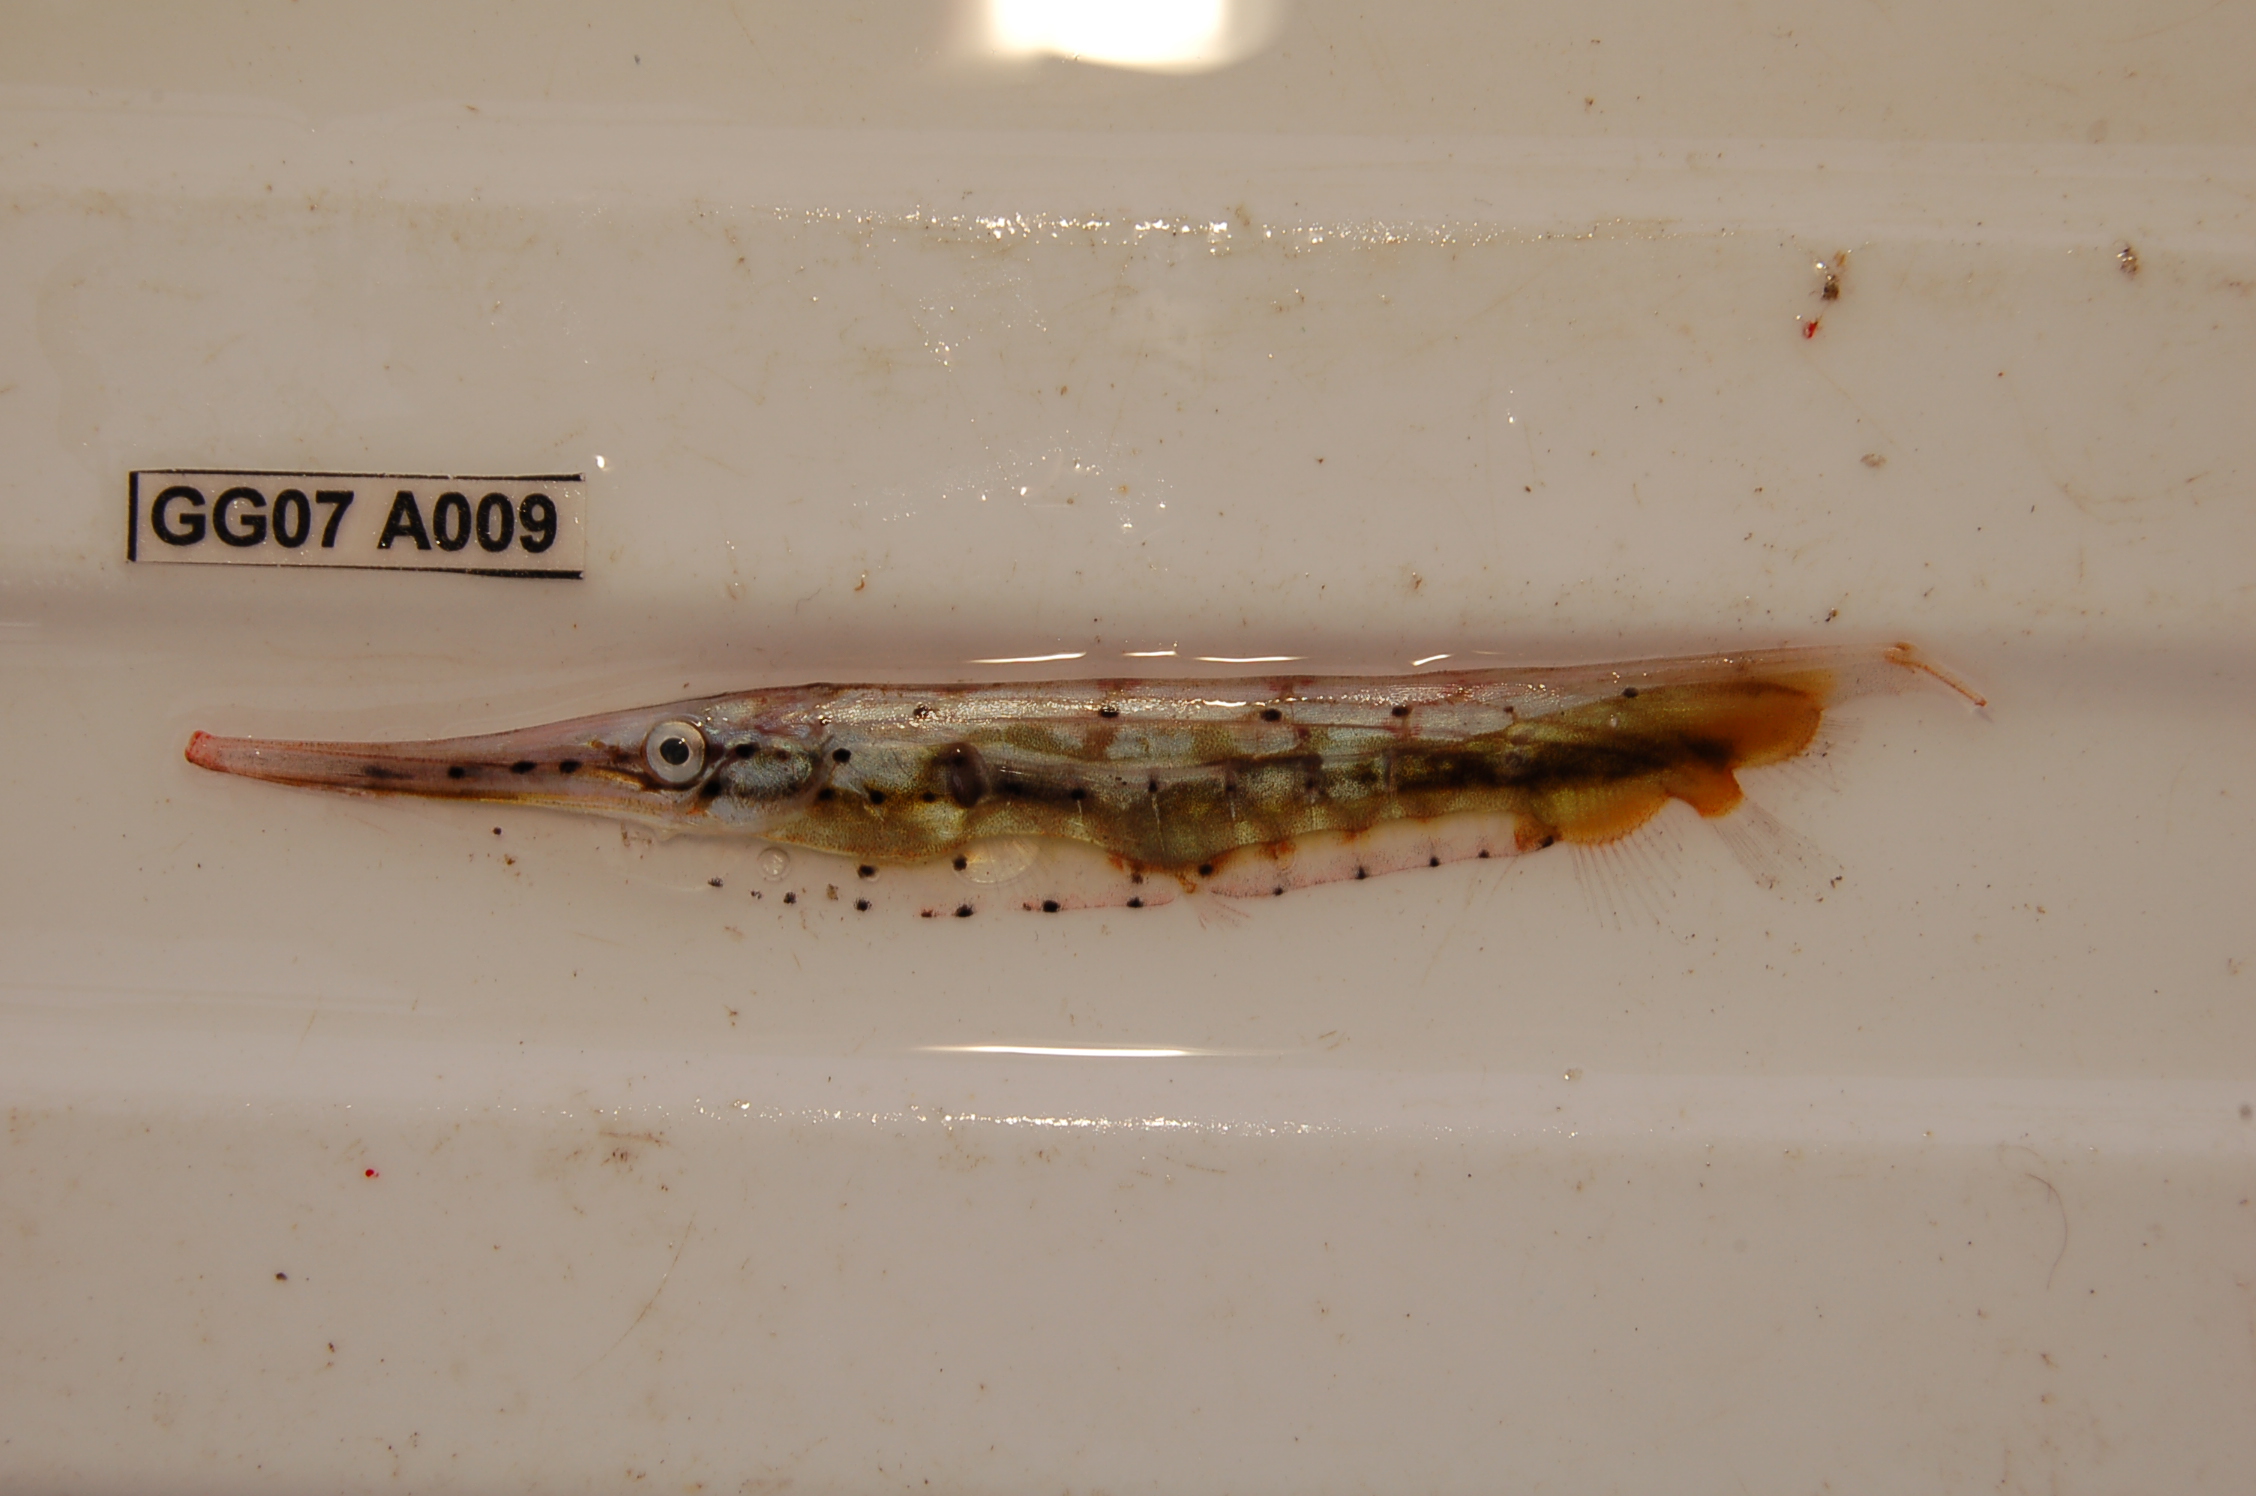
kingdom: Animalia
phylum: Chordata
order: Syngnathiformes
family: Centriscidae
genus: Aeoliscus
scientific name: Aeoliscus punctulatus
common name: Razorfish
